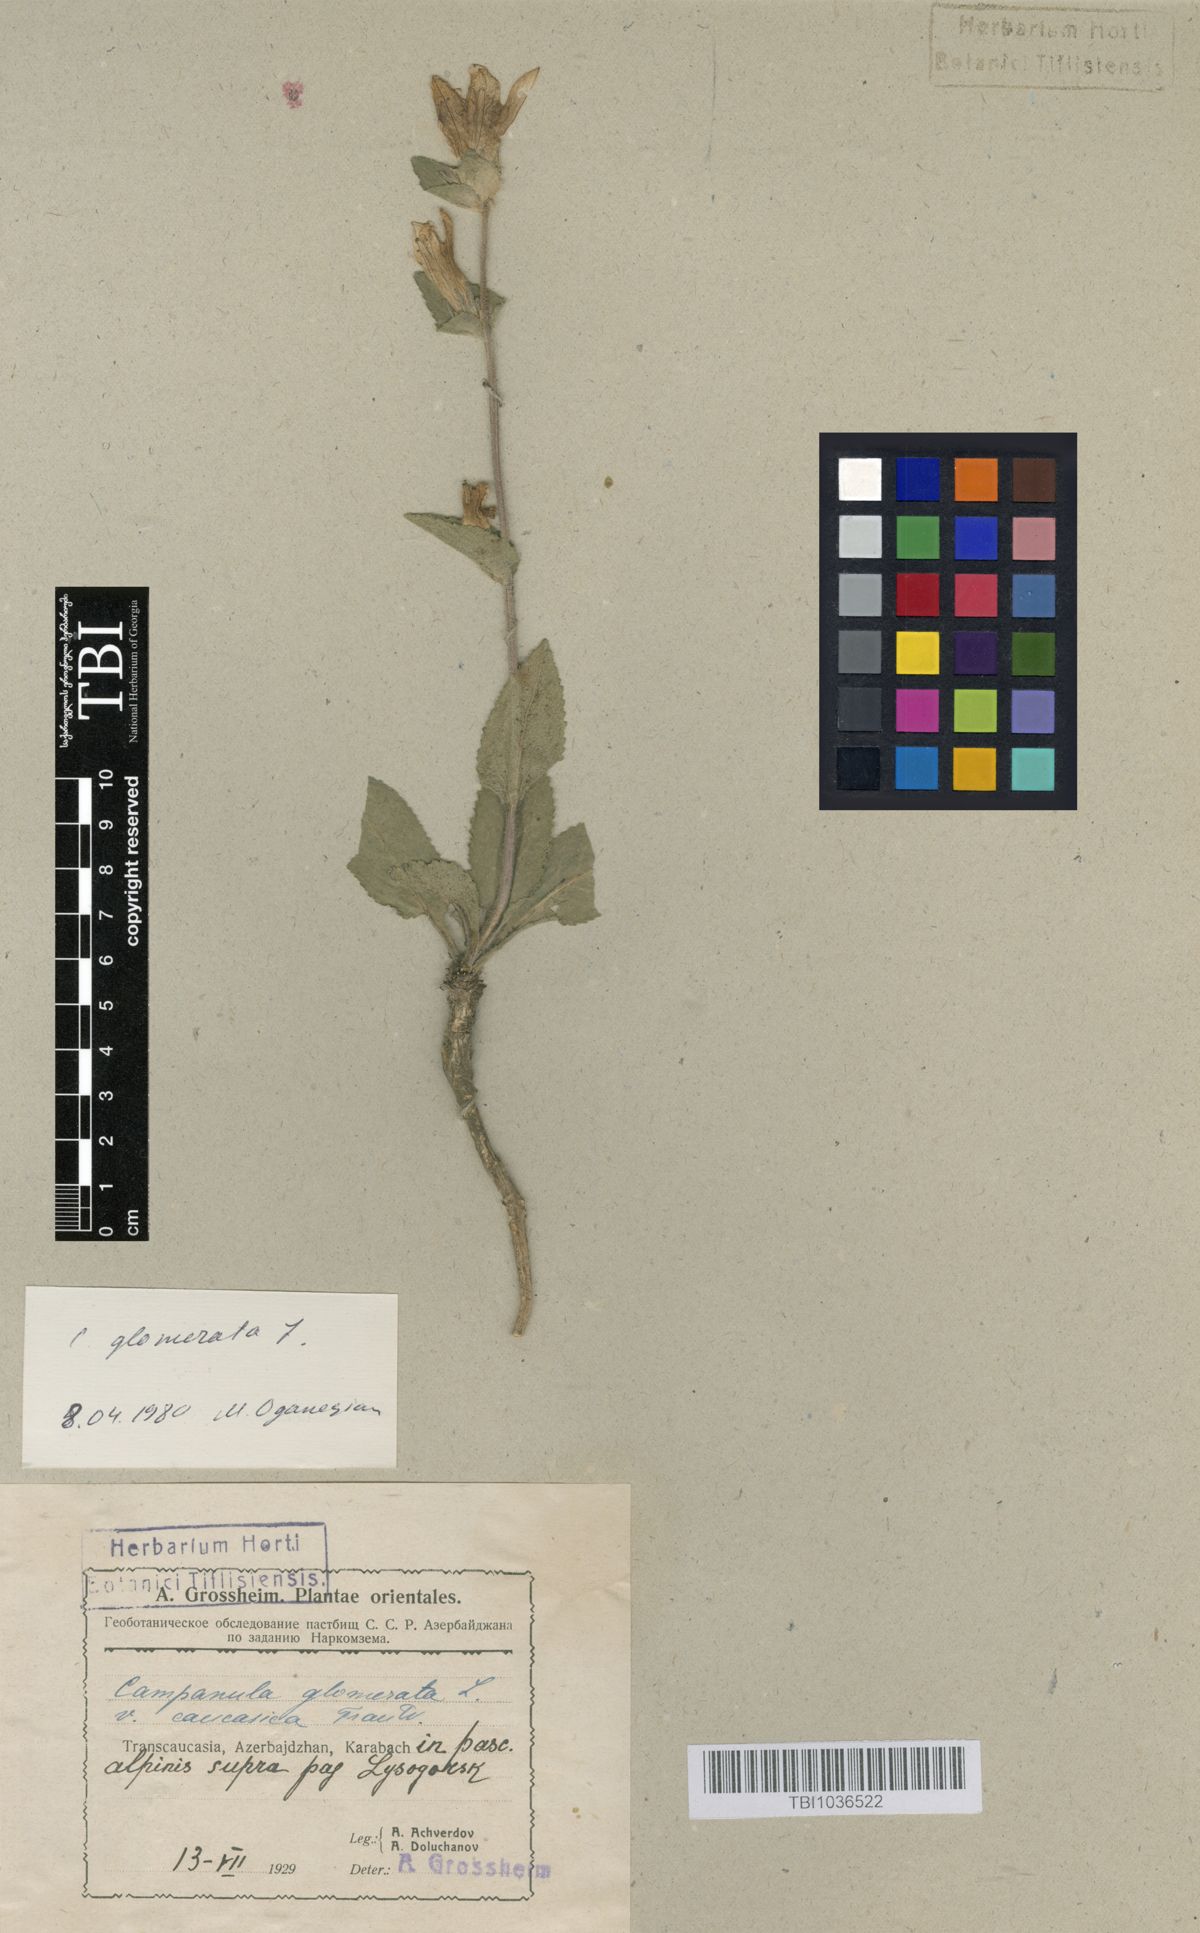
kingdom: Plantae
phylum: Tracheophyta
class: Magnoliopsida
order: Asterales
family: Campanulaceae
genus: Campanula
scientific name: Campanula glomerata
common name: Clustered bellflower
